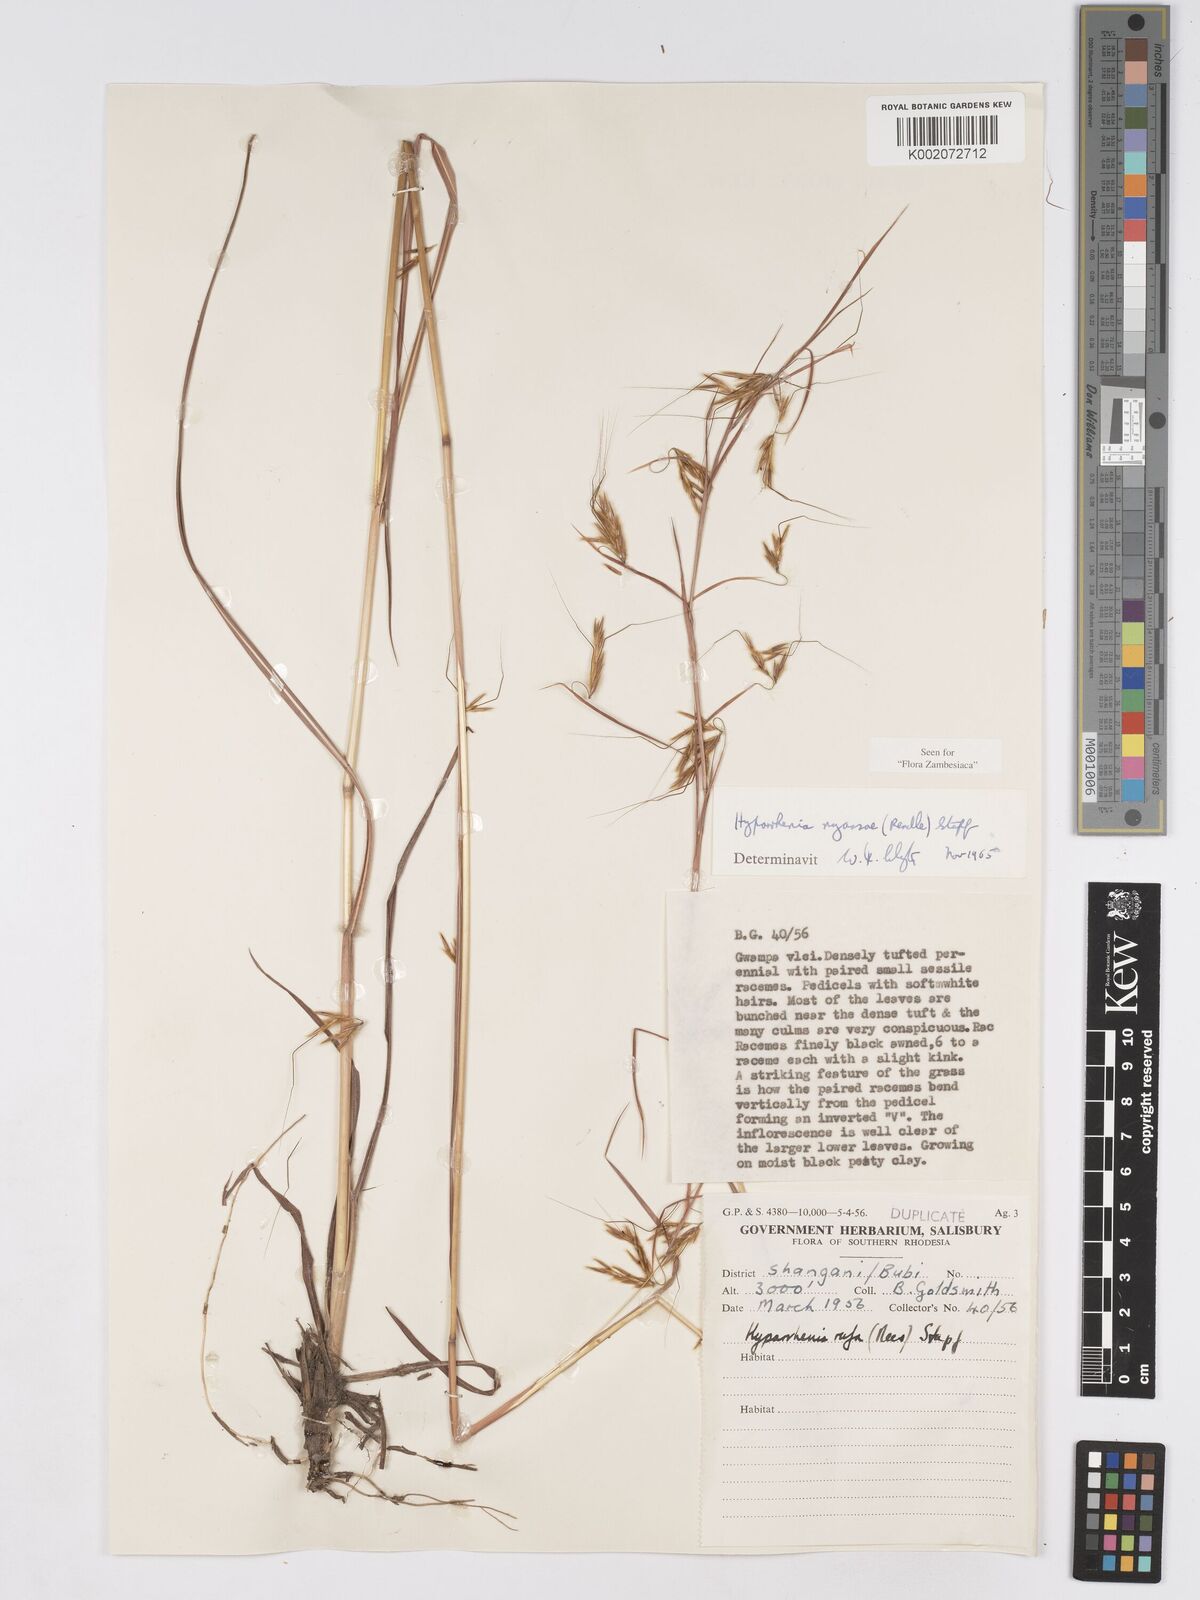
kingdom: Plantae
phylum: Tracheophyta
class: Liliopsida
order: Poales
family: Poaceae
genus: Hyparrhenia
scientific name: Hyparrhenia nyassae
